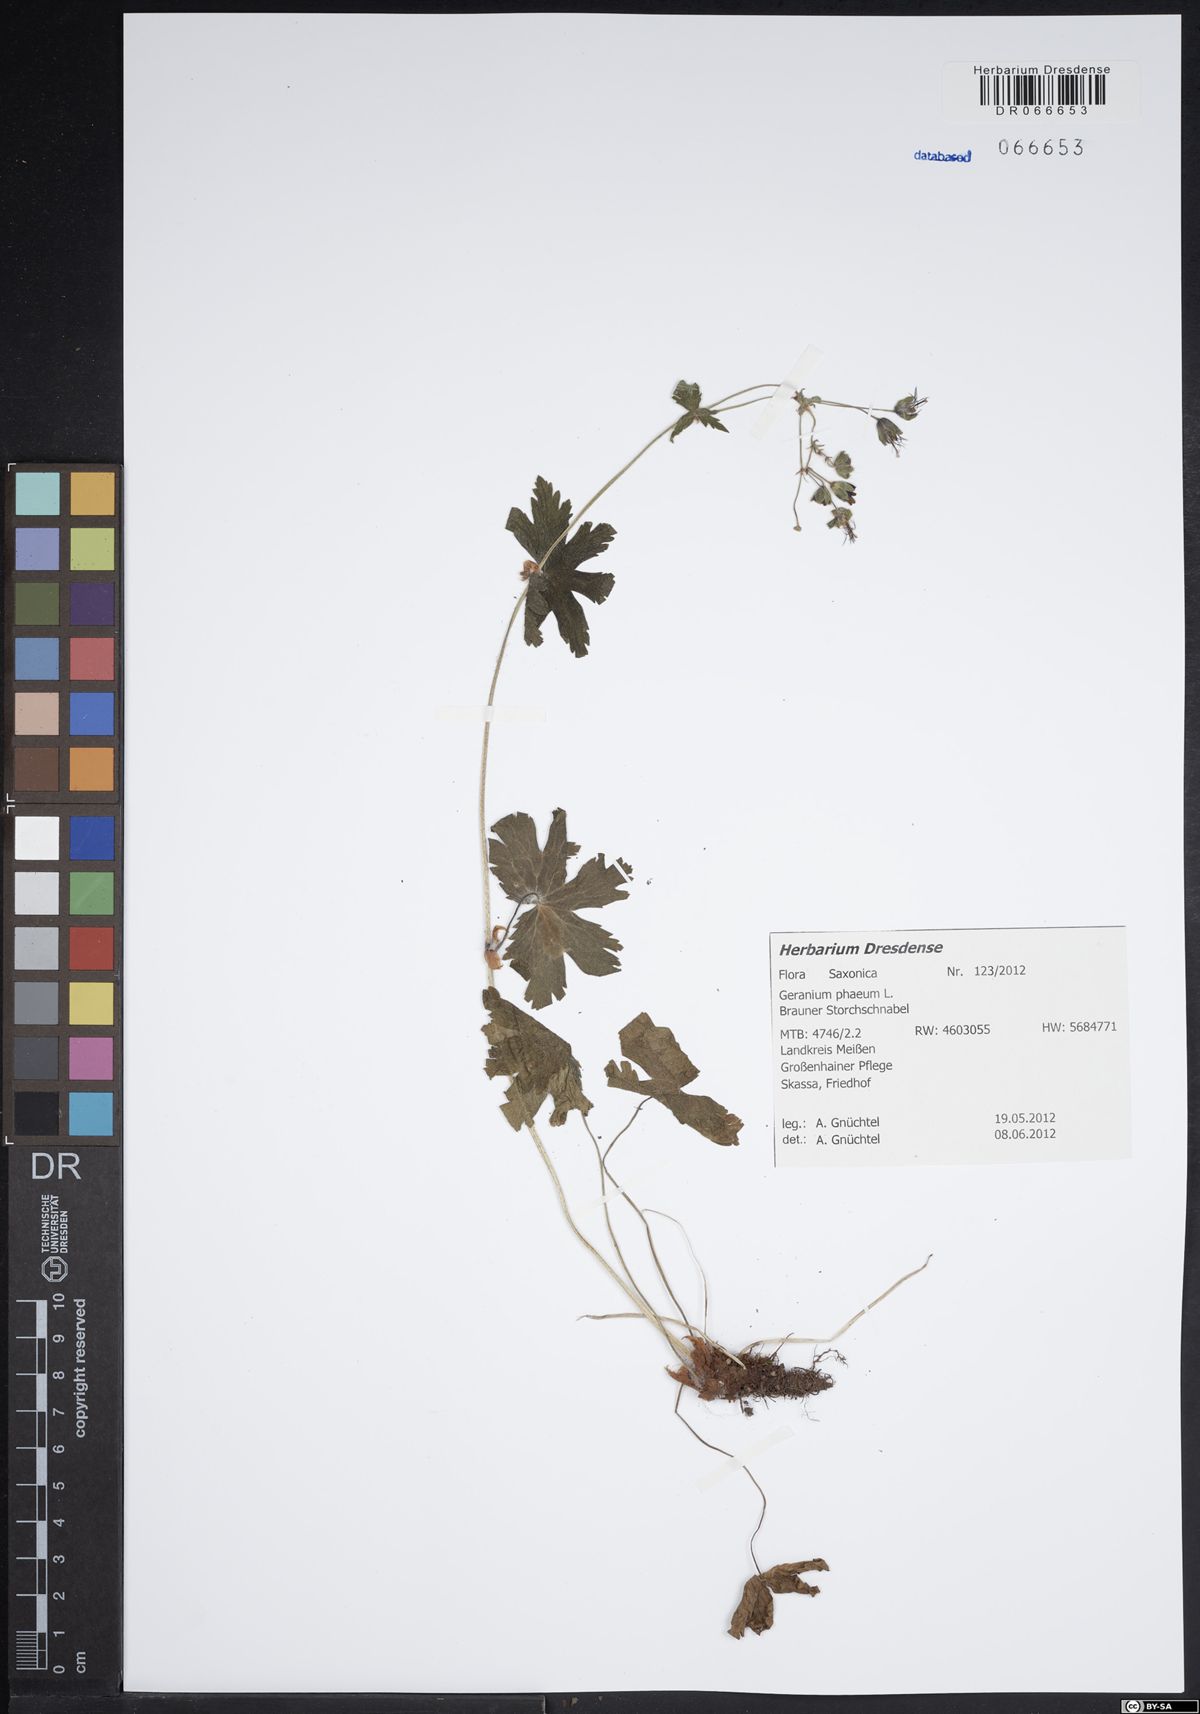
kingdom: Plantae
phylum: Tracheophyta
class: Magnoliopsida
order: Geraniales
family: Geraniaceae
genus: Geranium
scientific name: Geranium phaeum
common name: Dusky crane's-bill
